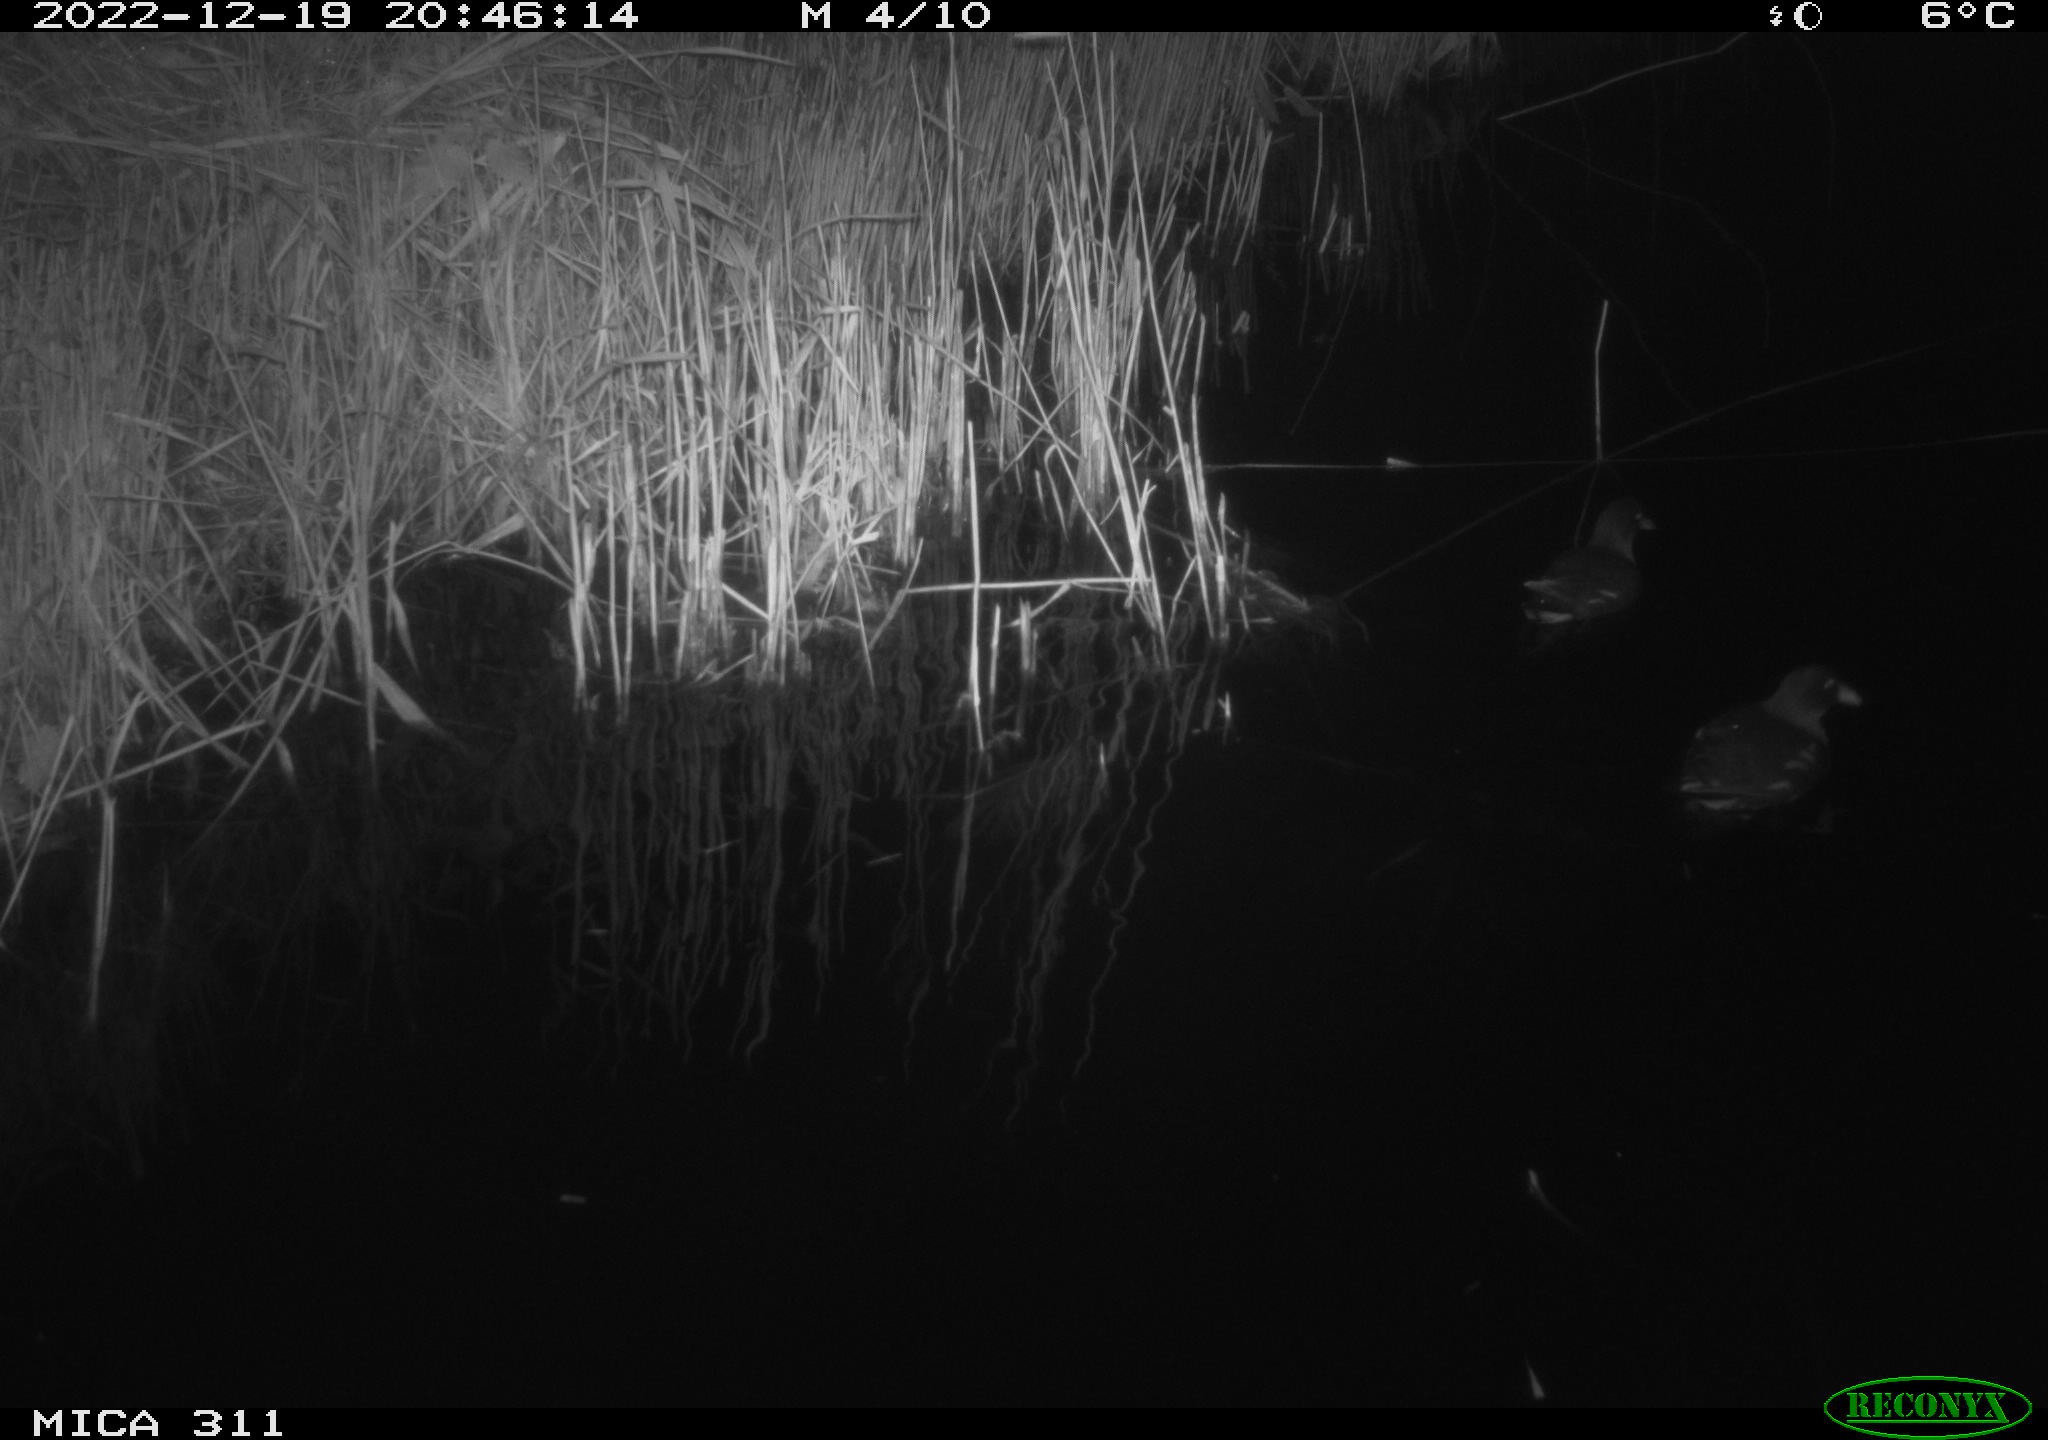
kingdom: Animalia
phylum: Chordata
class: Aves
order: Gruiformes
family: Rallidae
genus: Gallinula
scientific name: Gallinula chloropus
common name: Common moorhen
